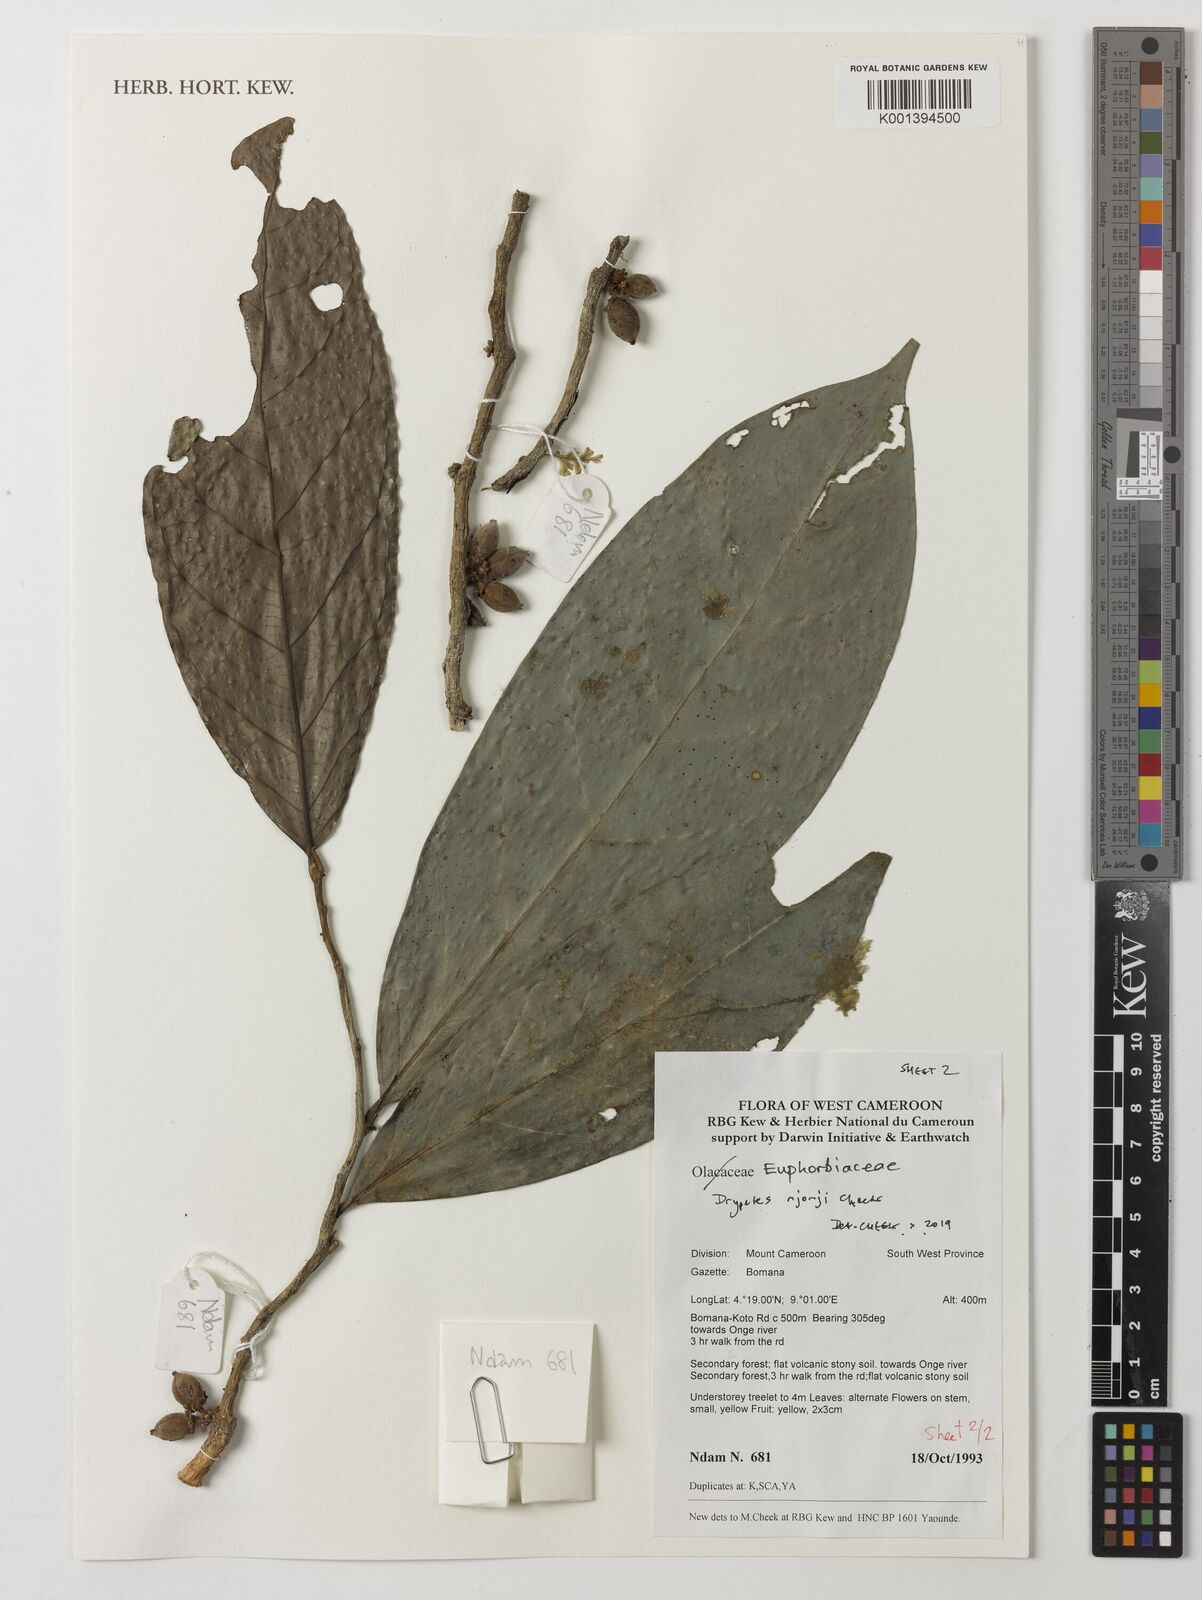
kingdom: Plantae
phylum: Tracheophyta
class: Magnoliopsida
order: Malpighiales
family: Putranjivaceae
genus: Drypetes
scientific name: Drypetes
